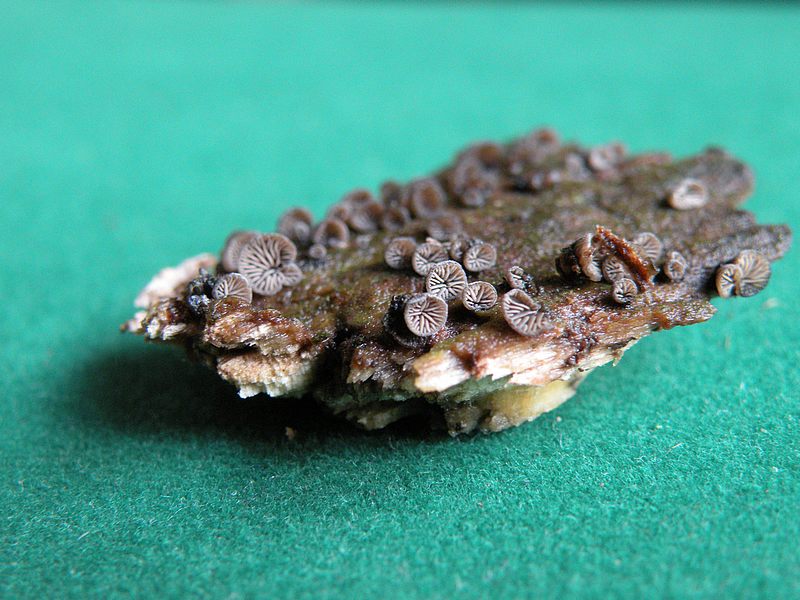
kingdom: Fungi
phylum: Basidiomycota
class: Agaricomycetes
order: Agaricales
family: Pleurotaceae
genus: Resupinatus
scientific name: Resupinatus applicatus
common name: lysfiltet barkhat
